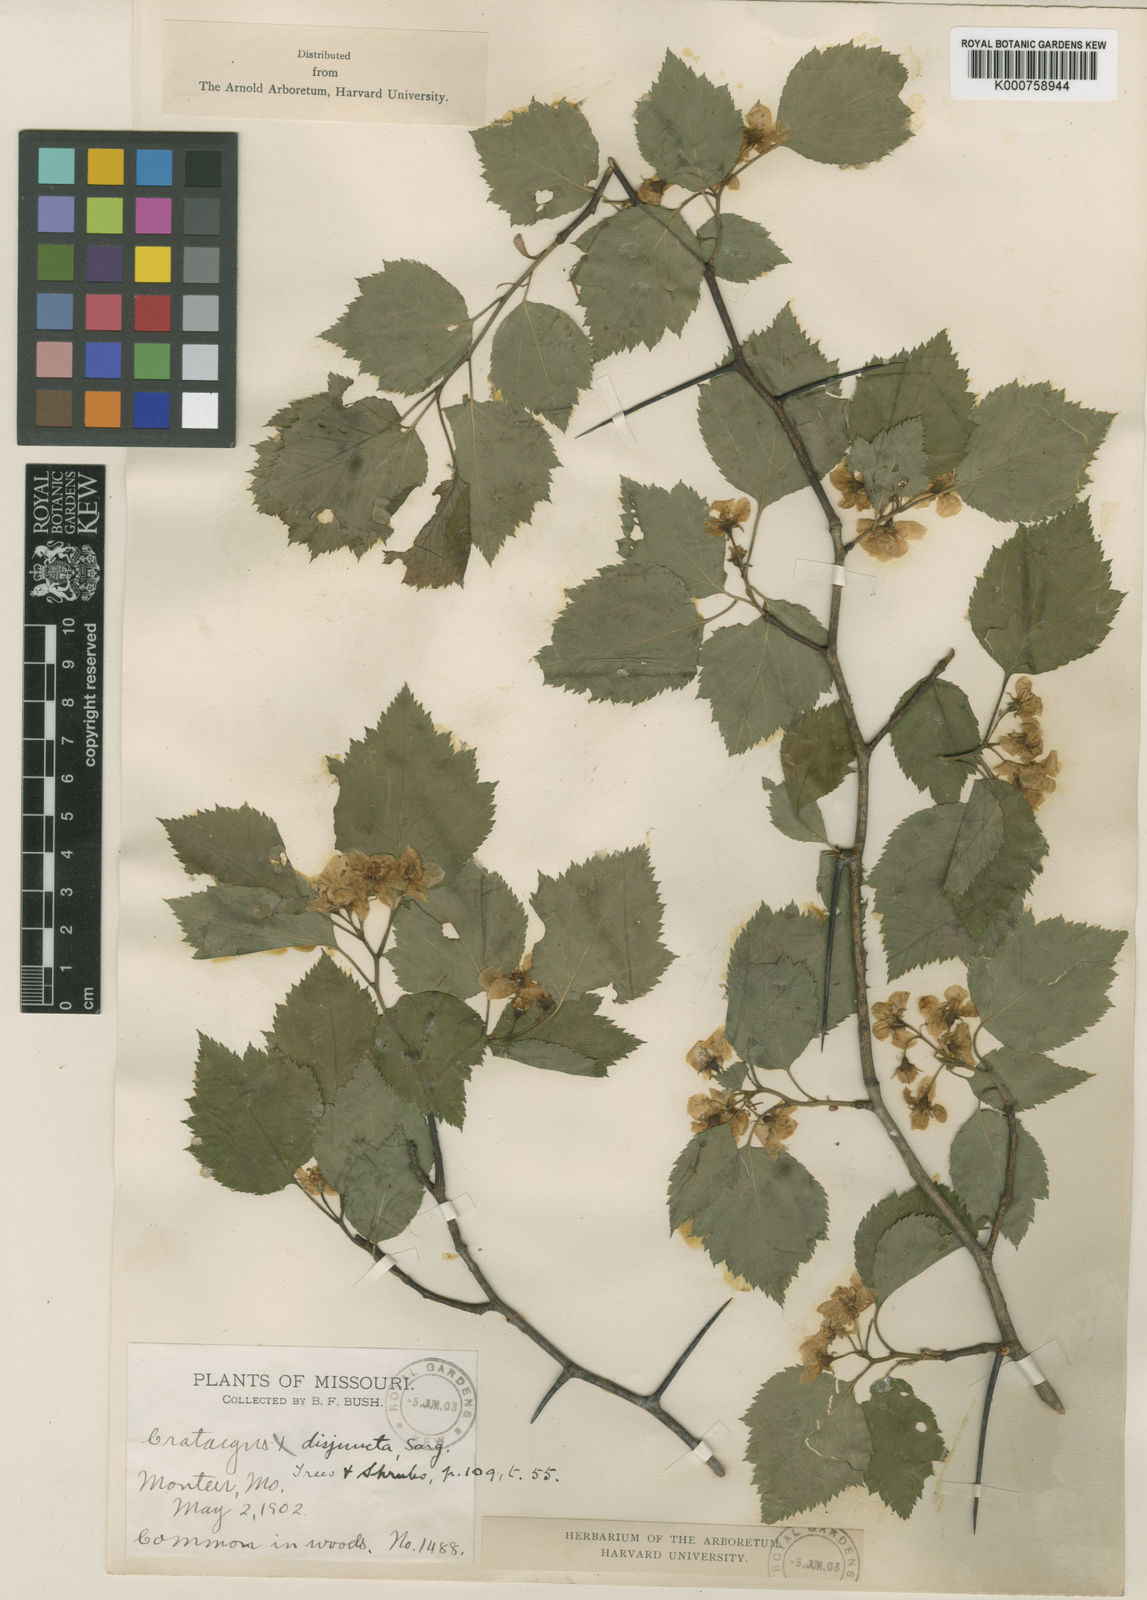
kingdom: Plantae
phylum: Tracheophyta
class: Magnoliopsida
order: Rosales
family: Rosaceae
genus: Crataegus
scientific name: Crataegus pruinosa
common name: Waxy-fruit hawthorn
